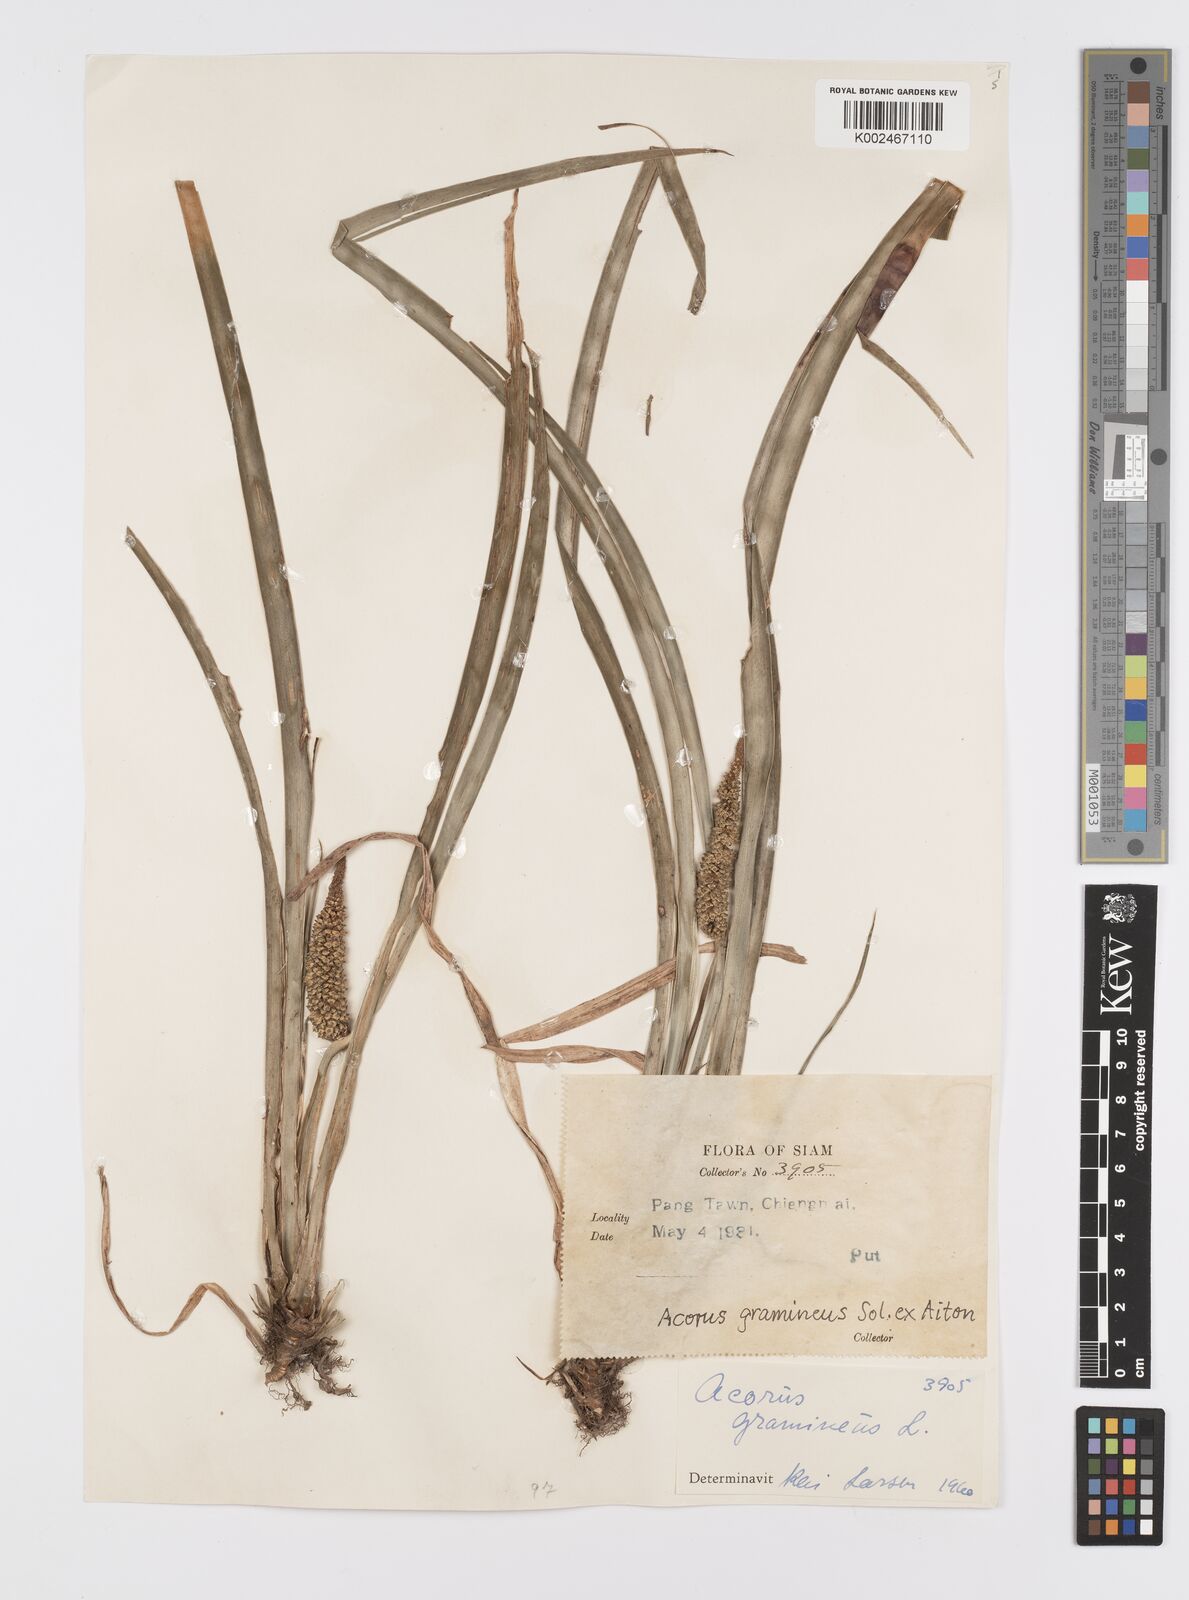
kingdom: Plantae
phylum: Tracheophyta
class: Liliopsida
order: Acorales
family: Acoraceae
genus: Acorus
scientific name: Acorus gramineus
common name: Slender sweet-flag
